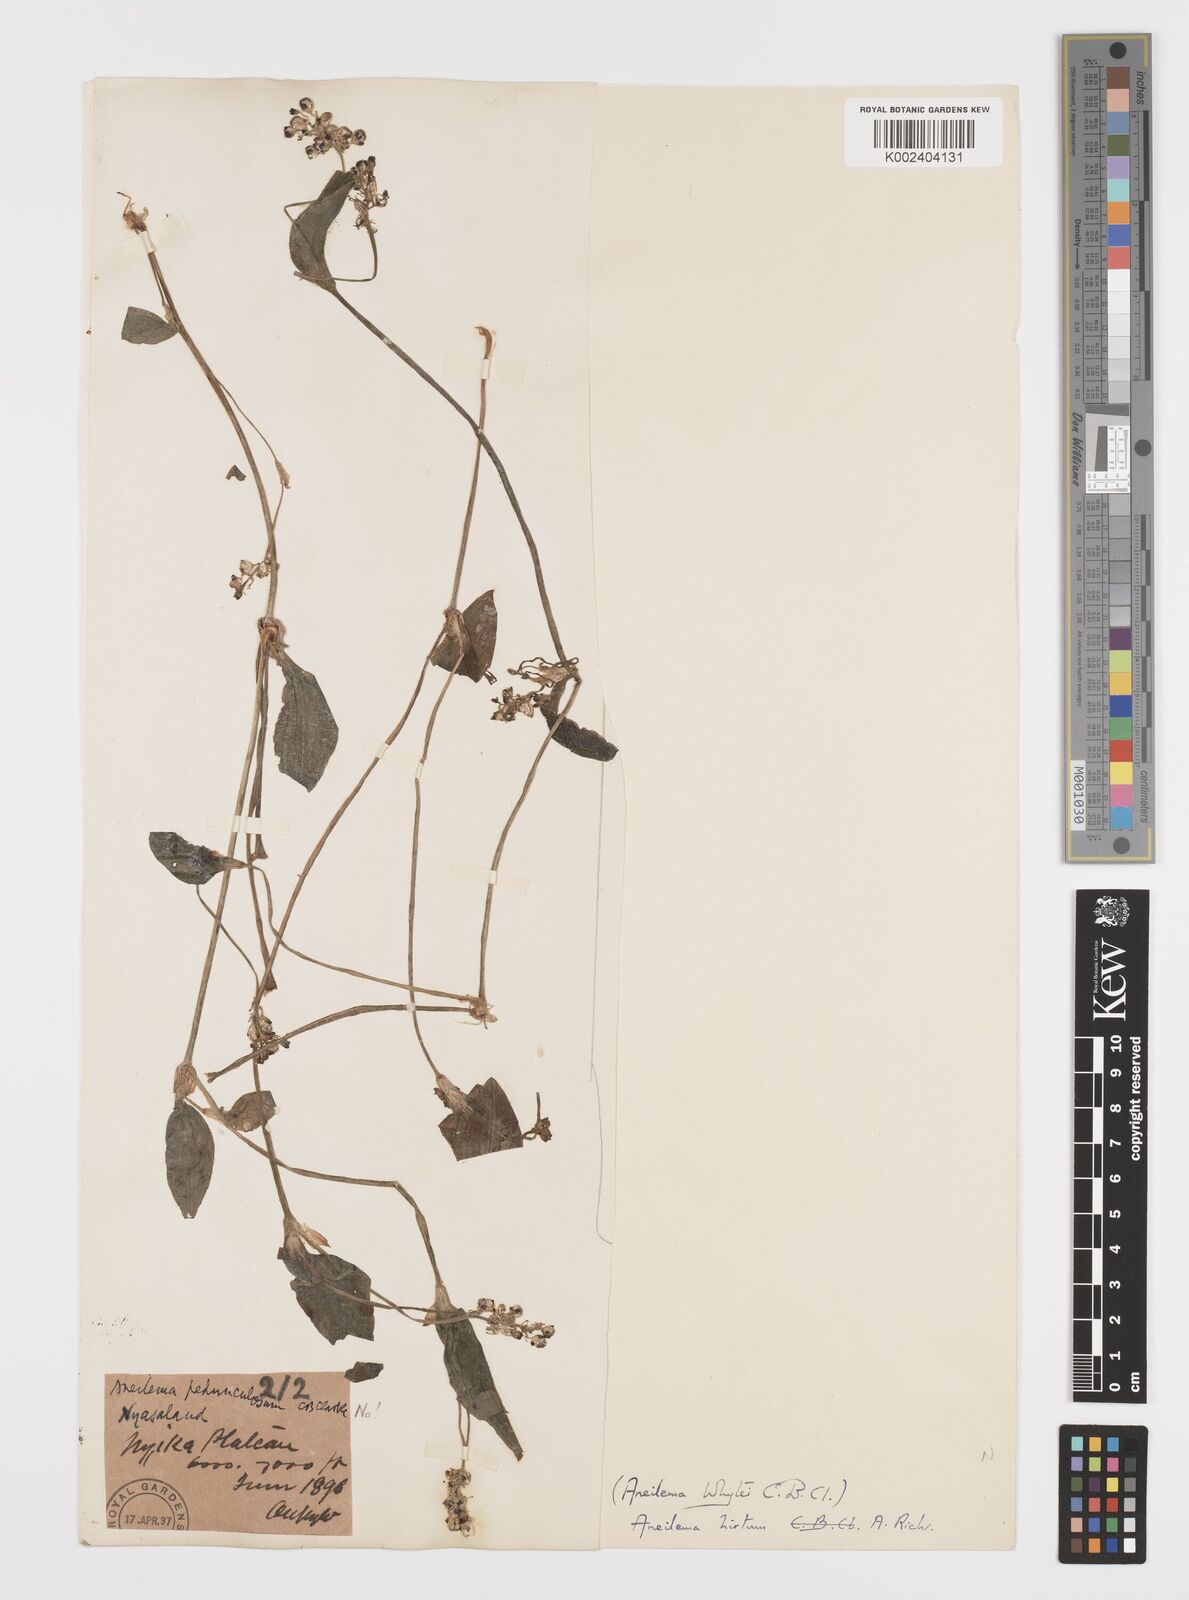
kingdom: Plantae
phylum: Tracheophyta
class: Liliopsida
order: Commelinales
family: Commelinaceae
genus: Aneilema
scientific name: Aneilema hirtum
